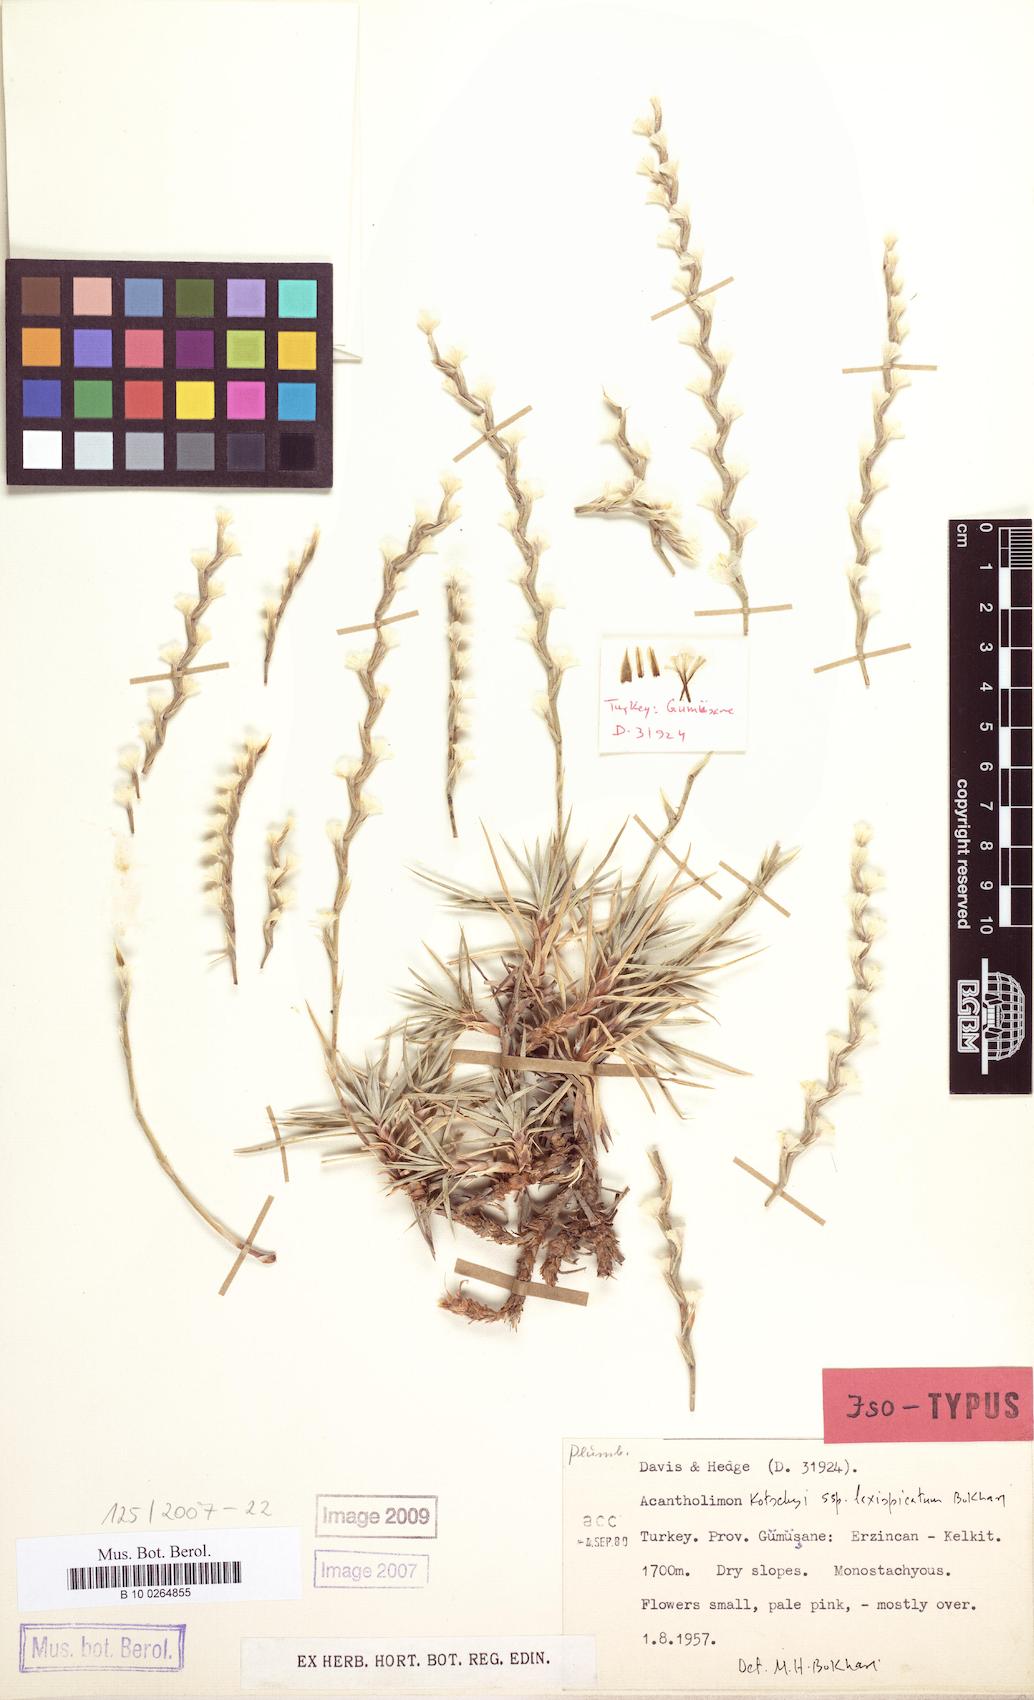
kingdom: Plantae
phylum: Tracheophyta
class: Magnoliopsida
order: Caryophyllales
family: Plumbaginaceae
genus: Acantholimon
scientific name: Acantholimon kotschyi
